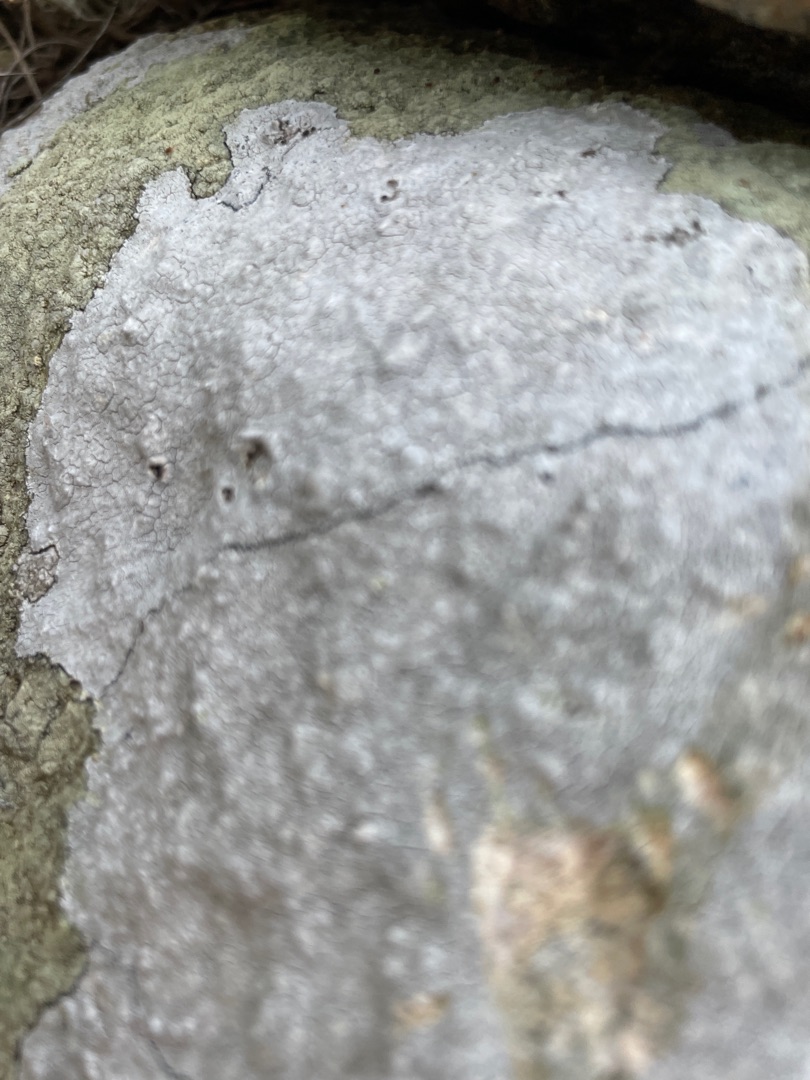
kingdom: Fungi
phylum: Ascomycota
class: Lecanoromycetes
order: Lecanorales
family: Lecanoraceae
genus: Glaucomaria
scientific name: Glaucomaria rupicola
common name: Stengærde-kantskivelav
